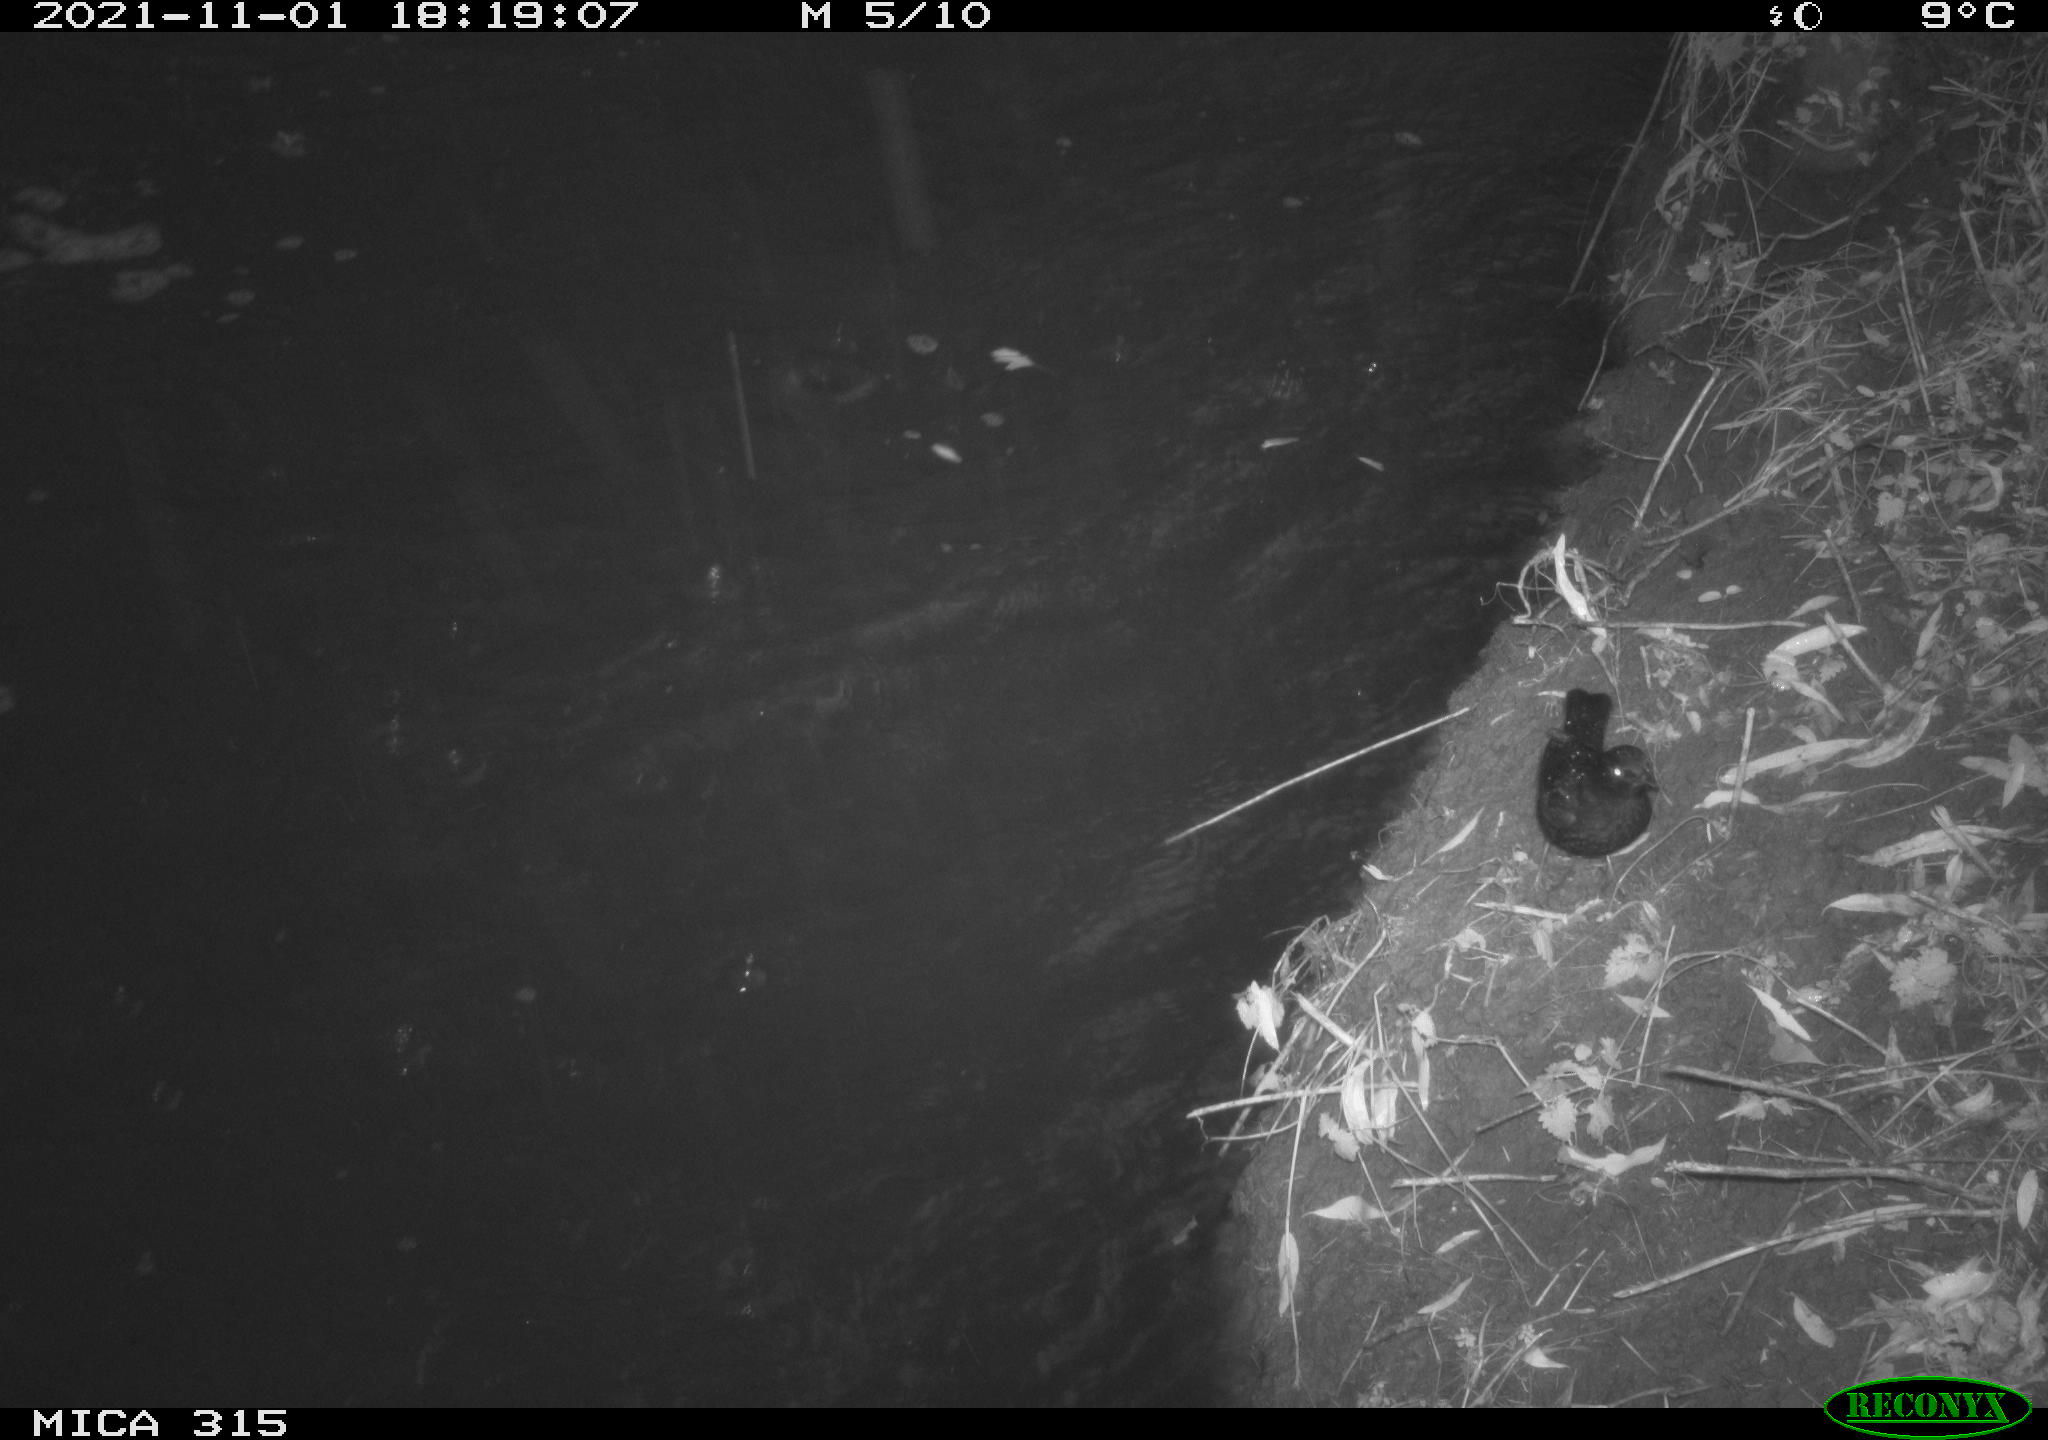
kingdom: Animalia
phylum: Chordata
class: Aves
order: Passeriformes
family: Turdidae
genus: Turdus
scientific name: Turdus merula
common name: Common blackbird
